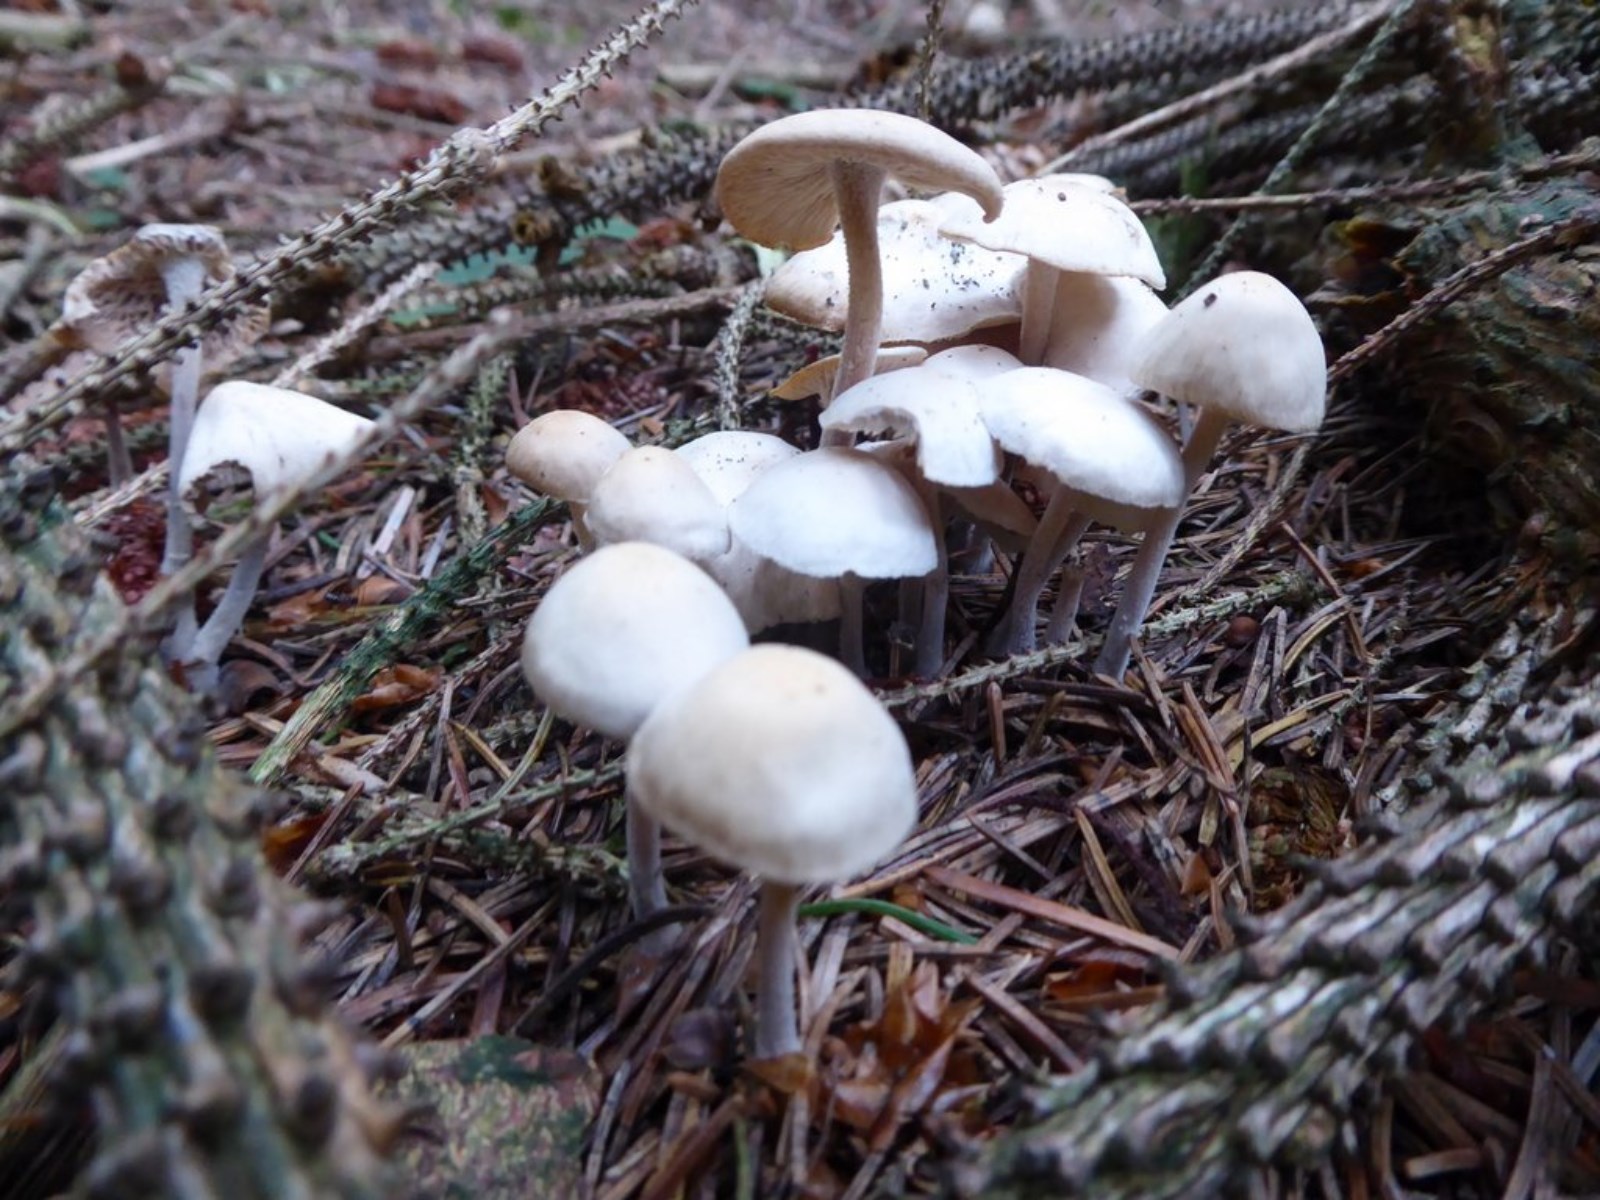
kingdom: Fungi
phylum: Basidiomycota
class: Agaricomycetes
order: Agaricales
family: Omphalotaceae
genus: Collybiopsis
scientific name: Collybiopsis confluens
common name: knippe-fladhat
